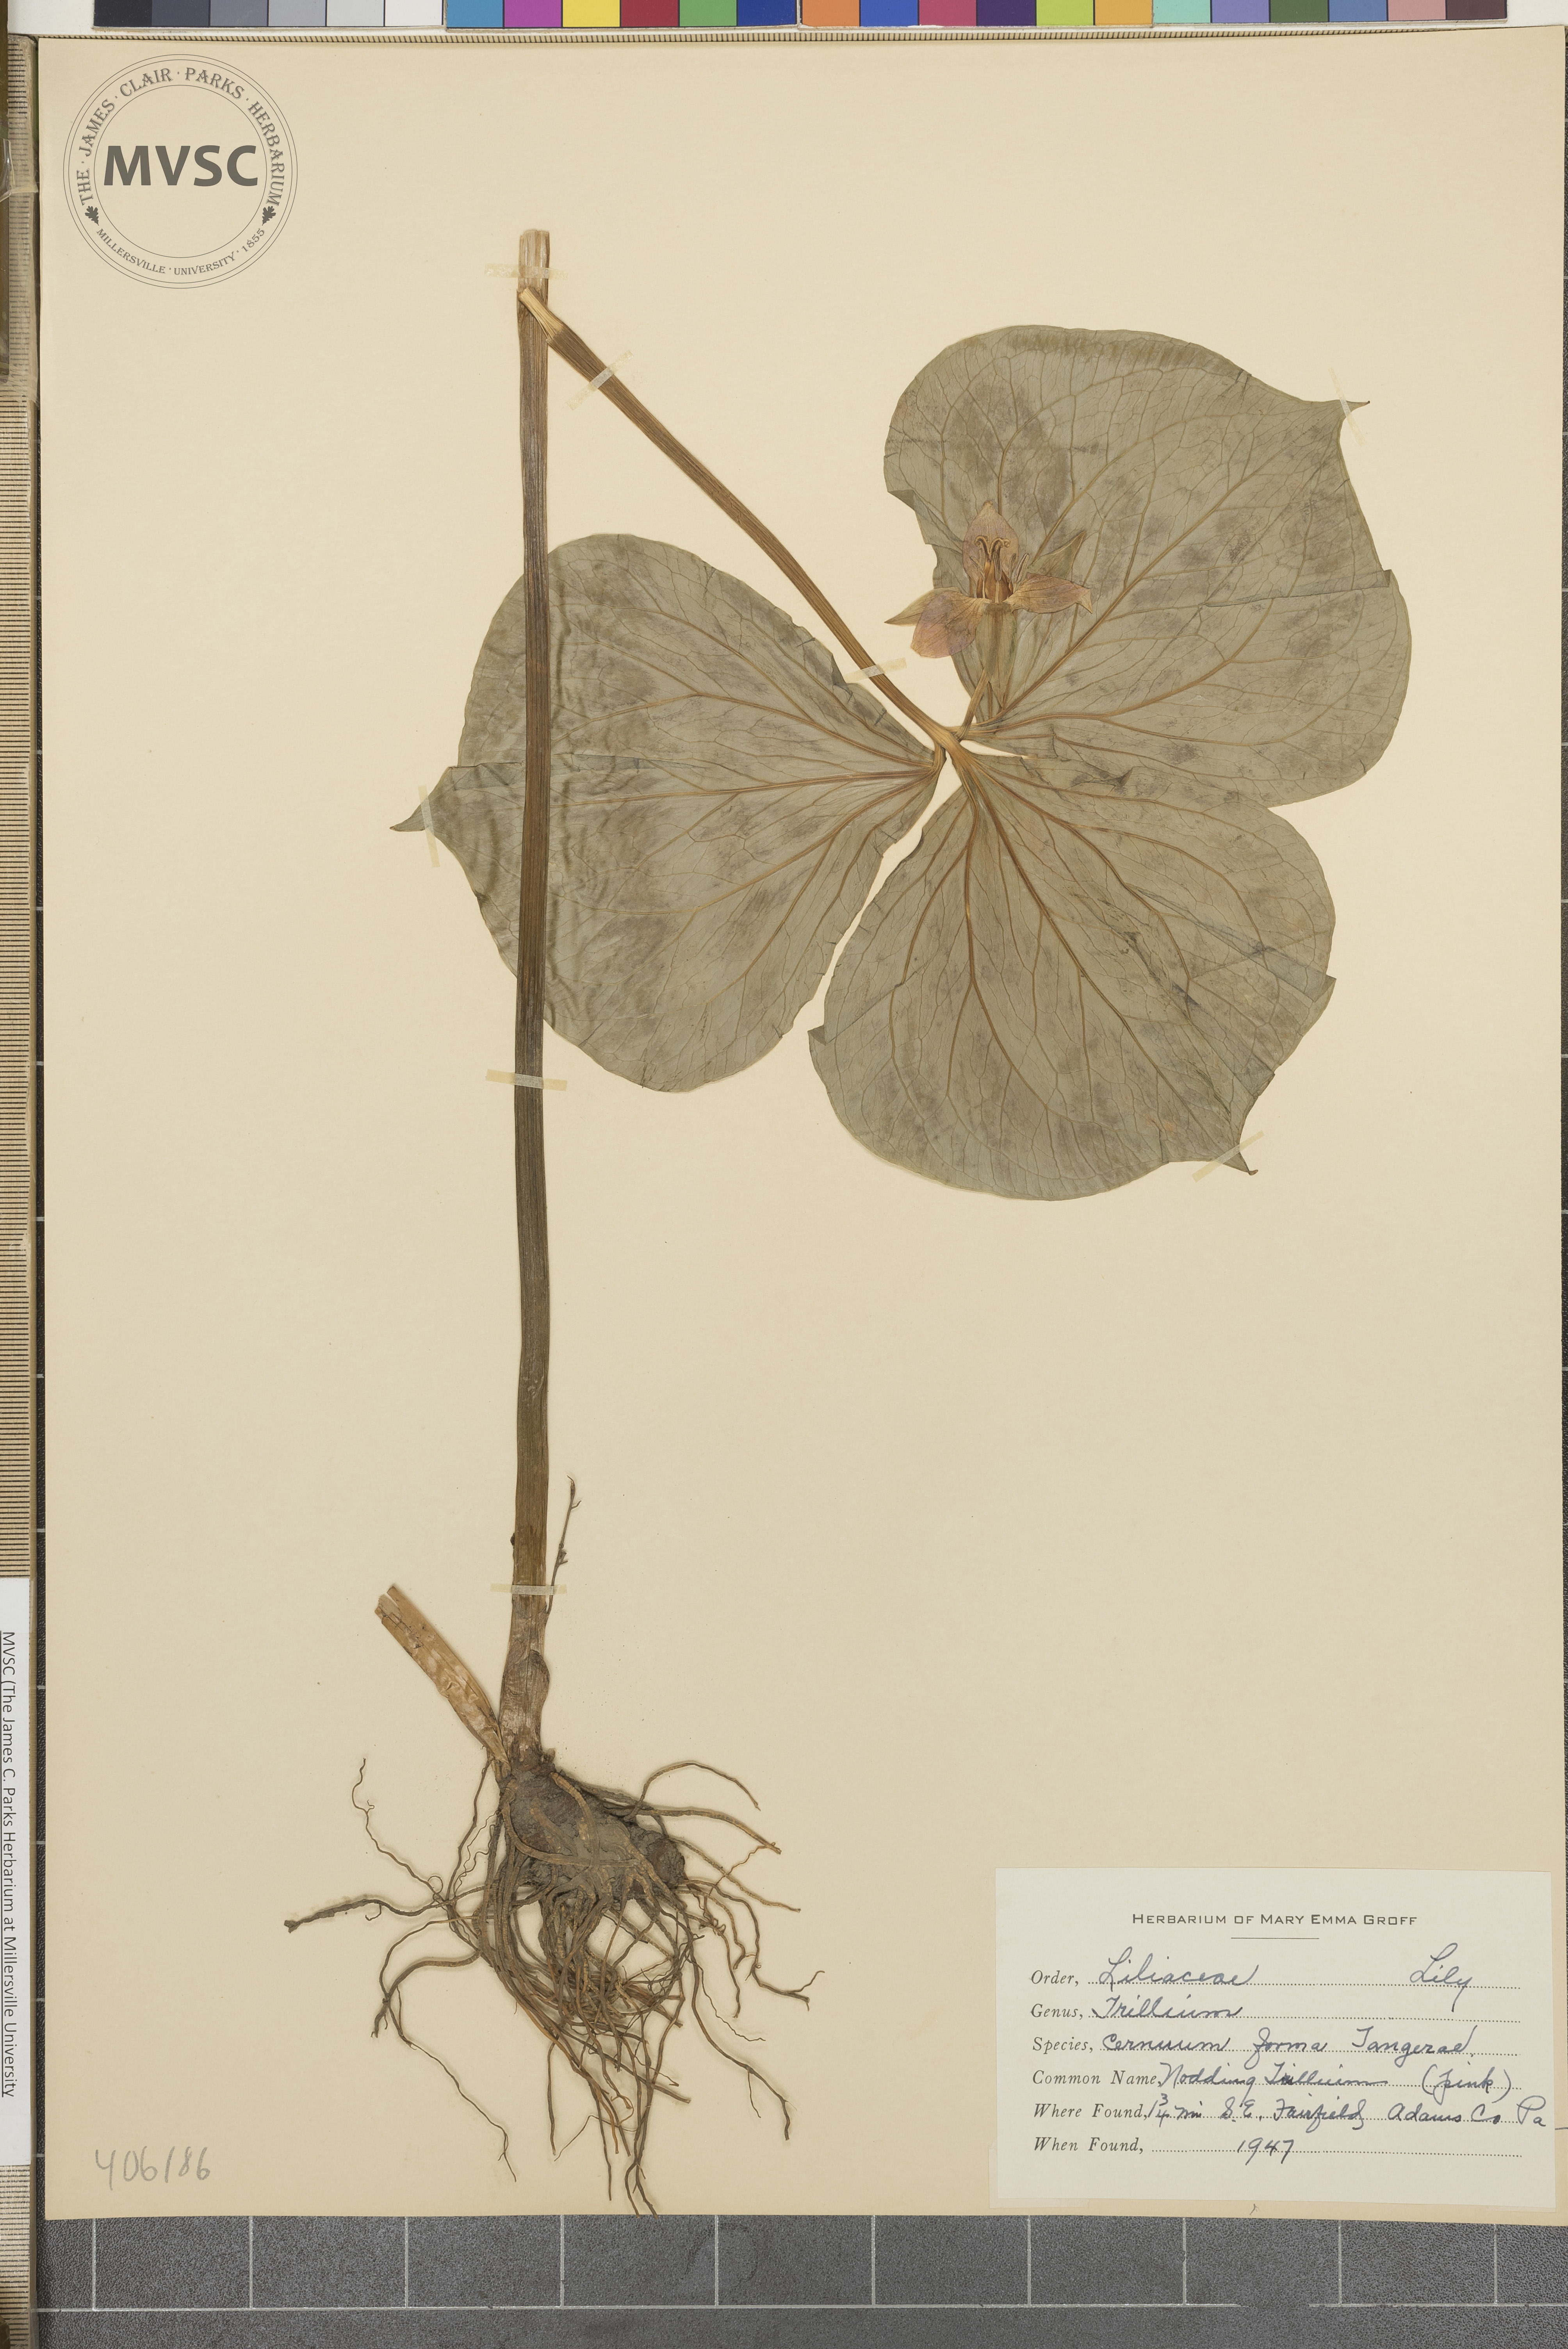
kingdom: Plantae
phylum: Tracheophyta
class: Liliopsida
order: Liliales
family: Melanthiaceae
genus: Trillium
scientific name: Trillium cernuum
